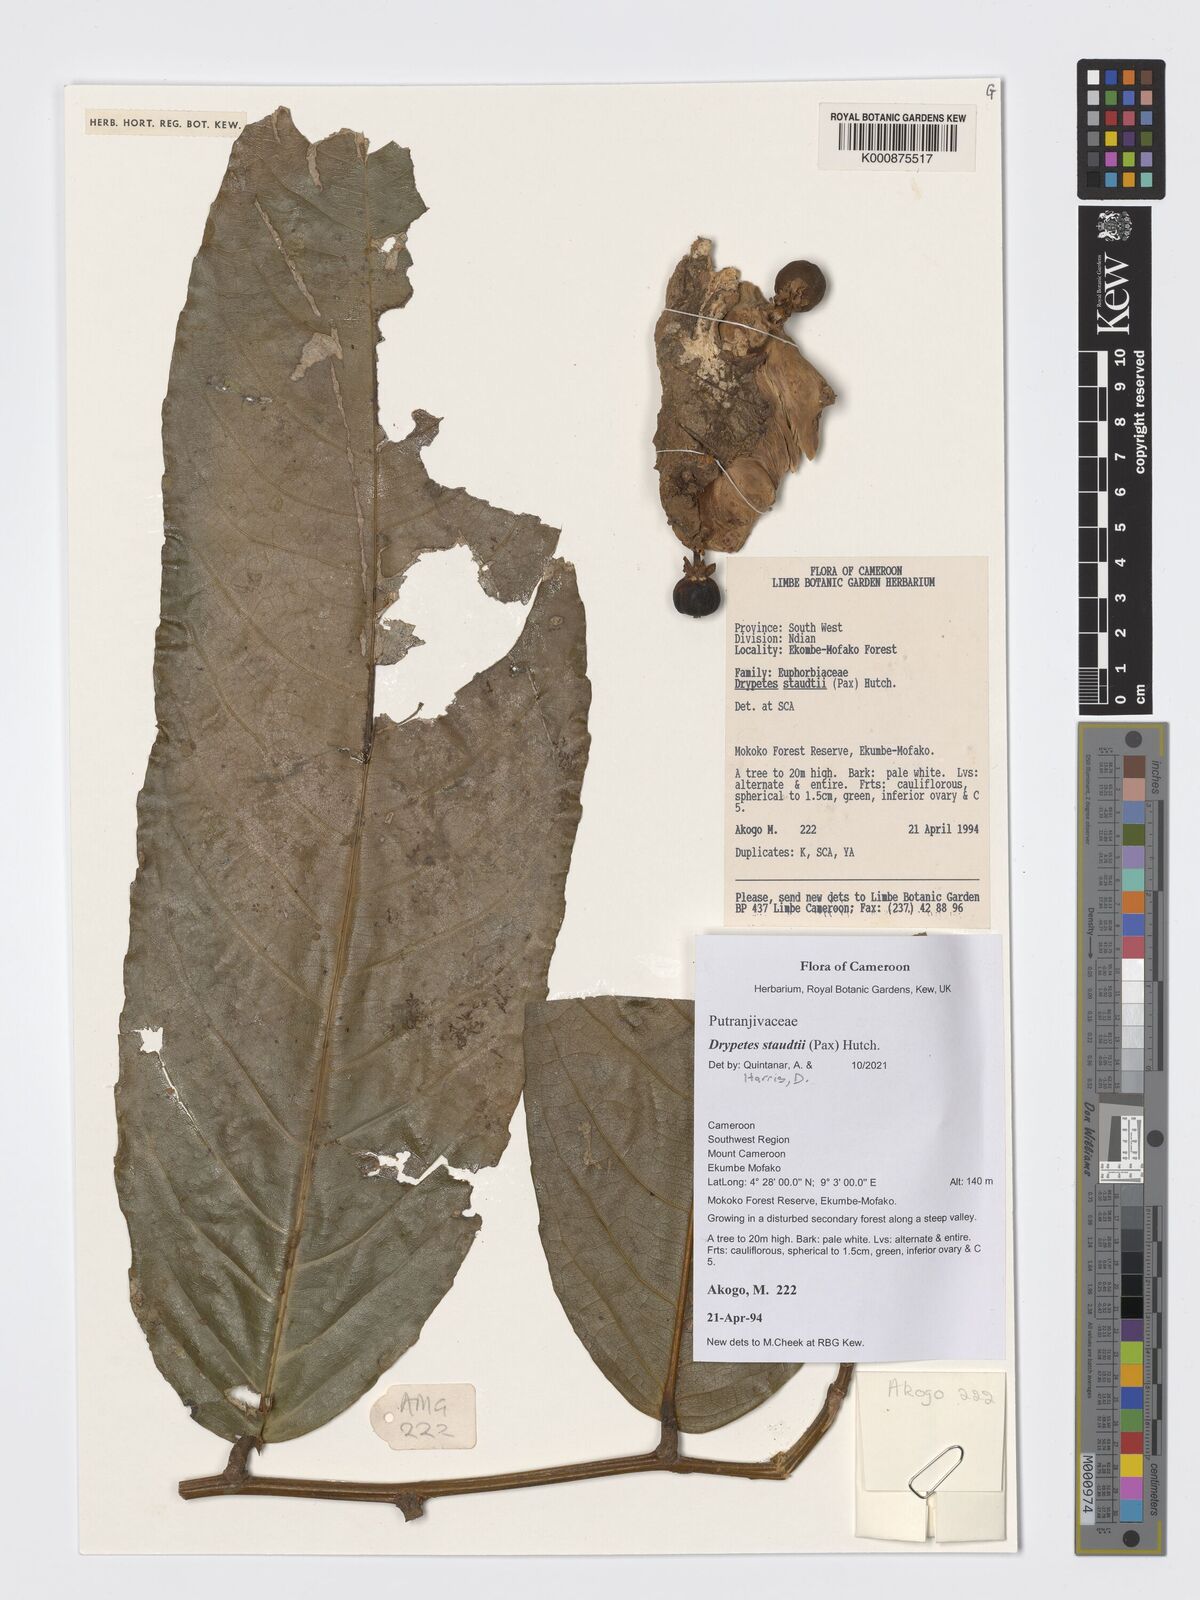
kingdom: Plantae
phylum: Tracheophyta
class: Magnoliopsida
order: Malpighiales
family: Putranjivaceae
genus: Drypetes
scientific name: Drypetes staudtii
